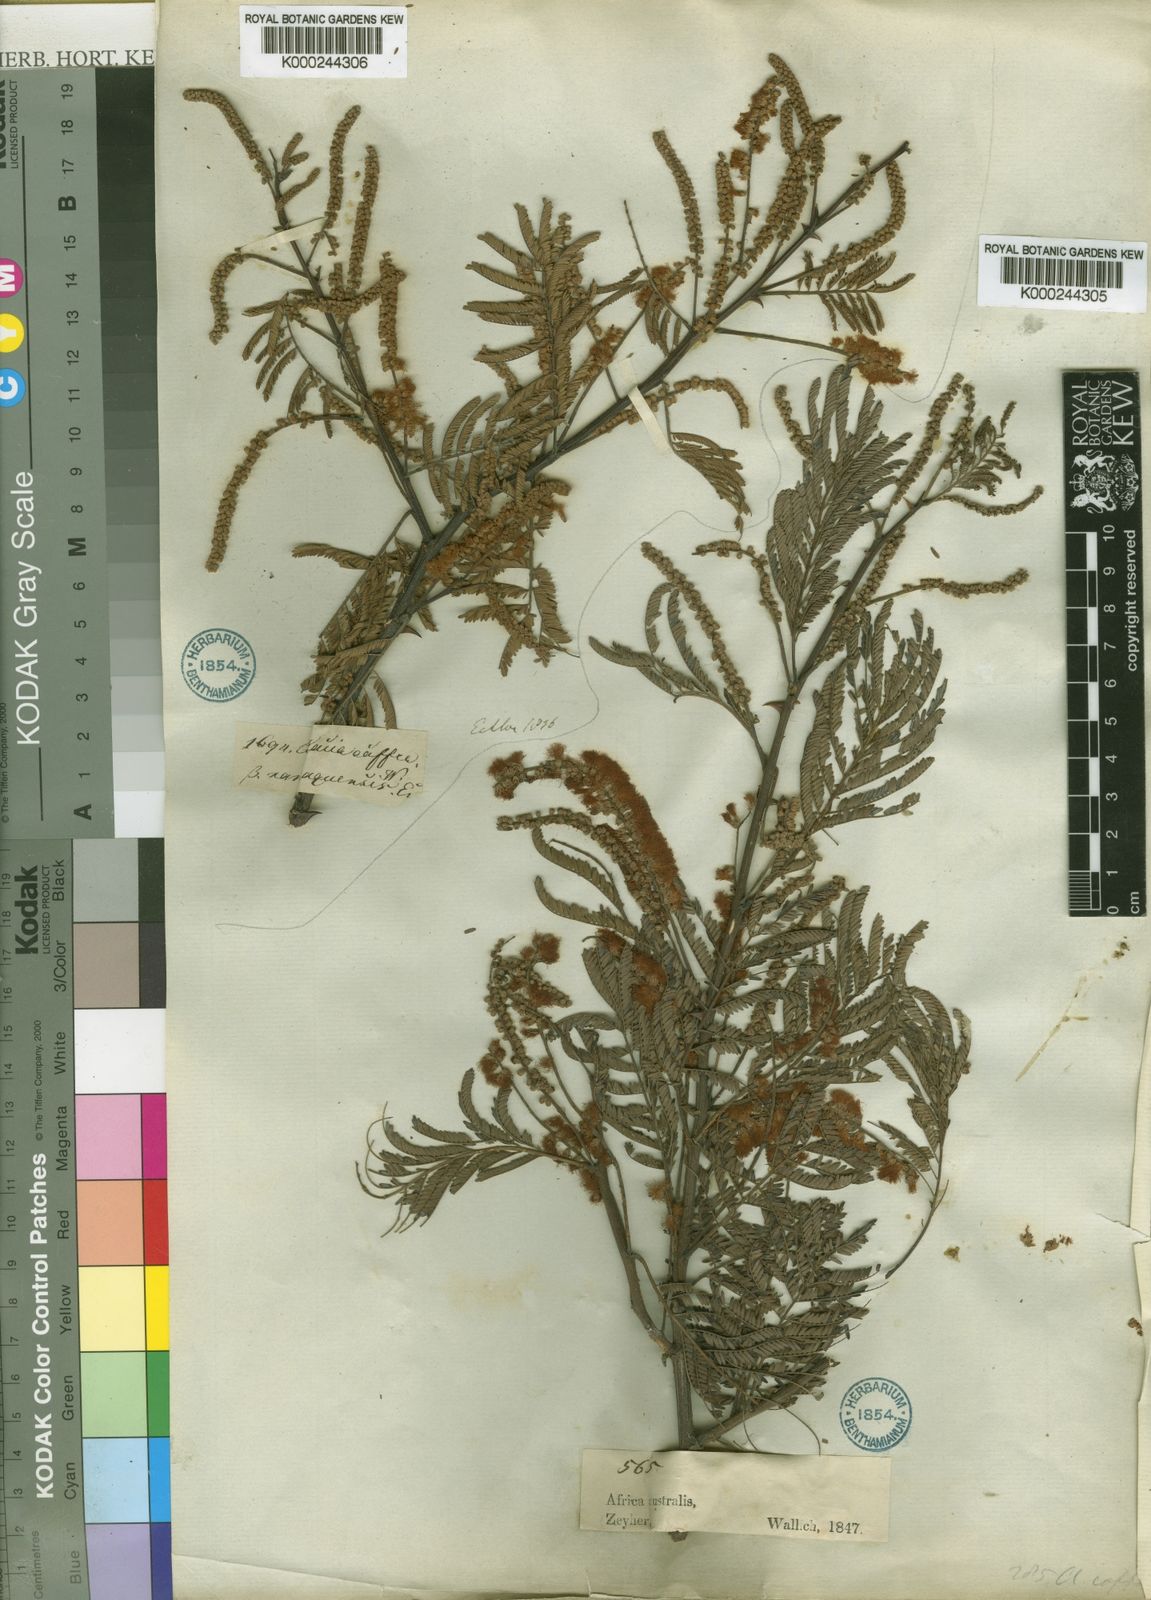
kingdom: Plantae
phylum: Tracheophyta
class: Magnoliopsida
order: Fabales
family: Fabaceae
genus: Senegalia
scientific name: Senegalia caffra
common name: Cat thorn
